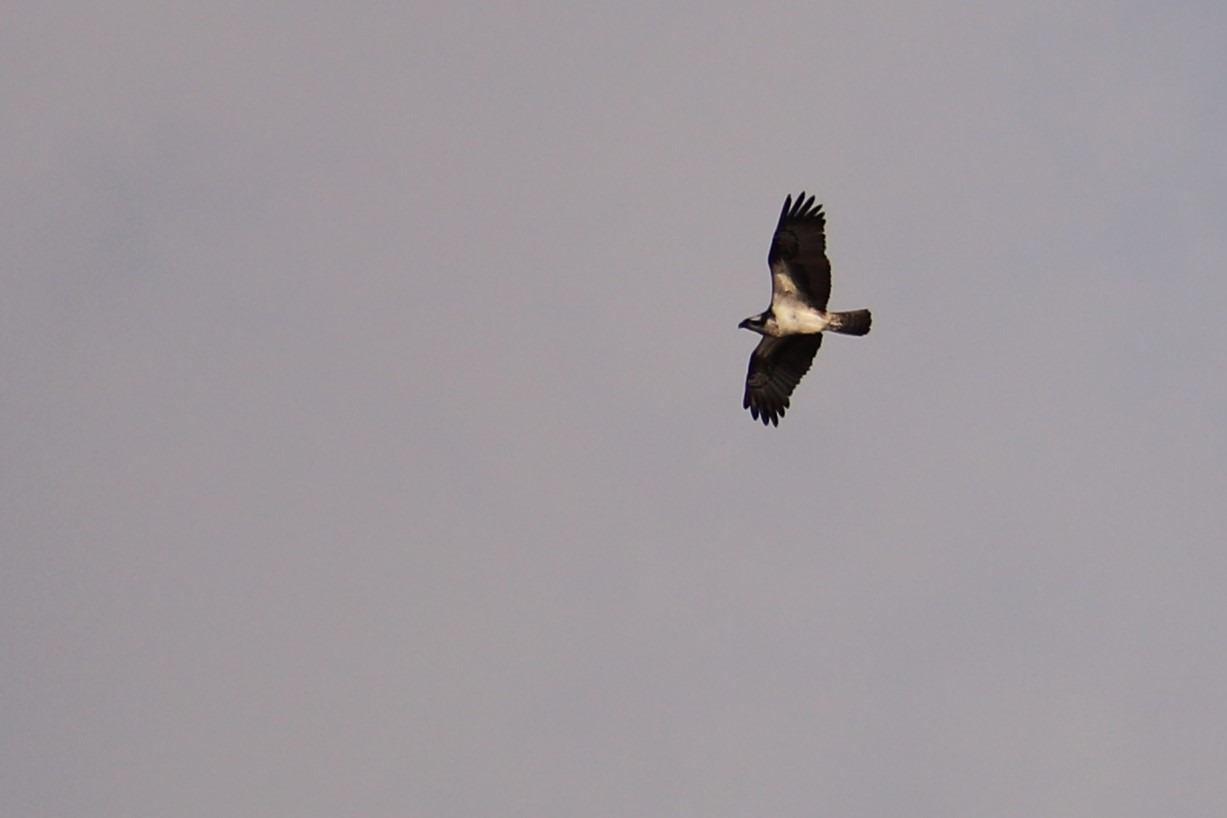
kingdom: Animalia
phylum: Chordata
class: Aves
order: Accipitriformes
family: Pandionidae
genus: Pandion
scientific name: Pandion haliaetus
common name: Fiskeørn
